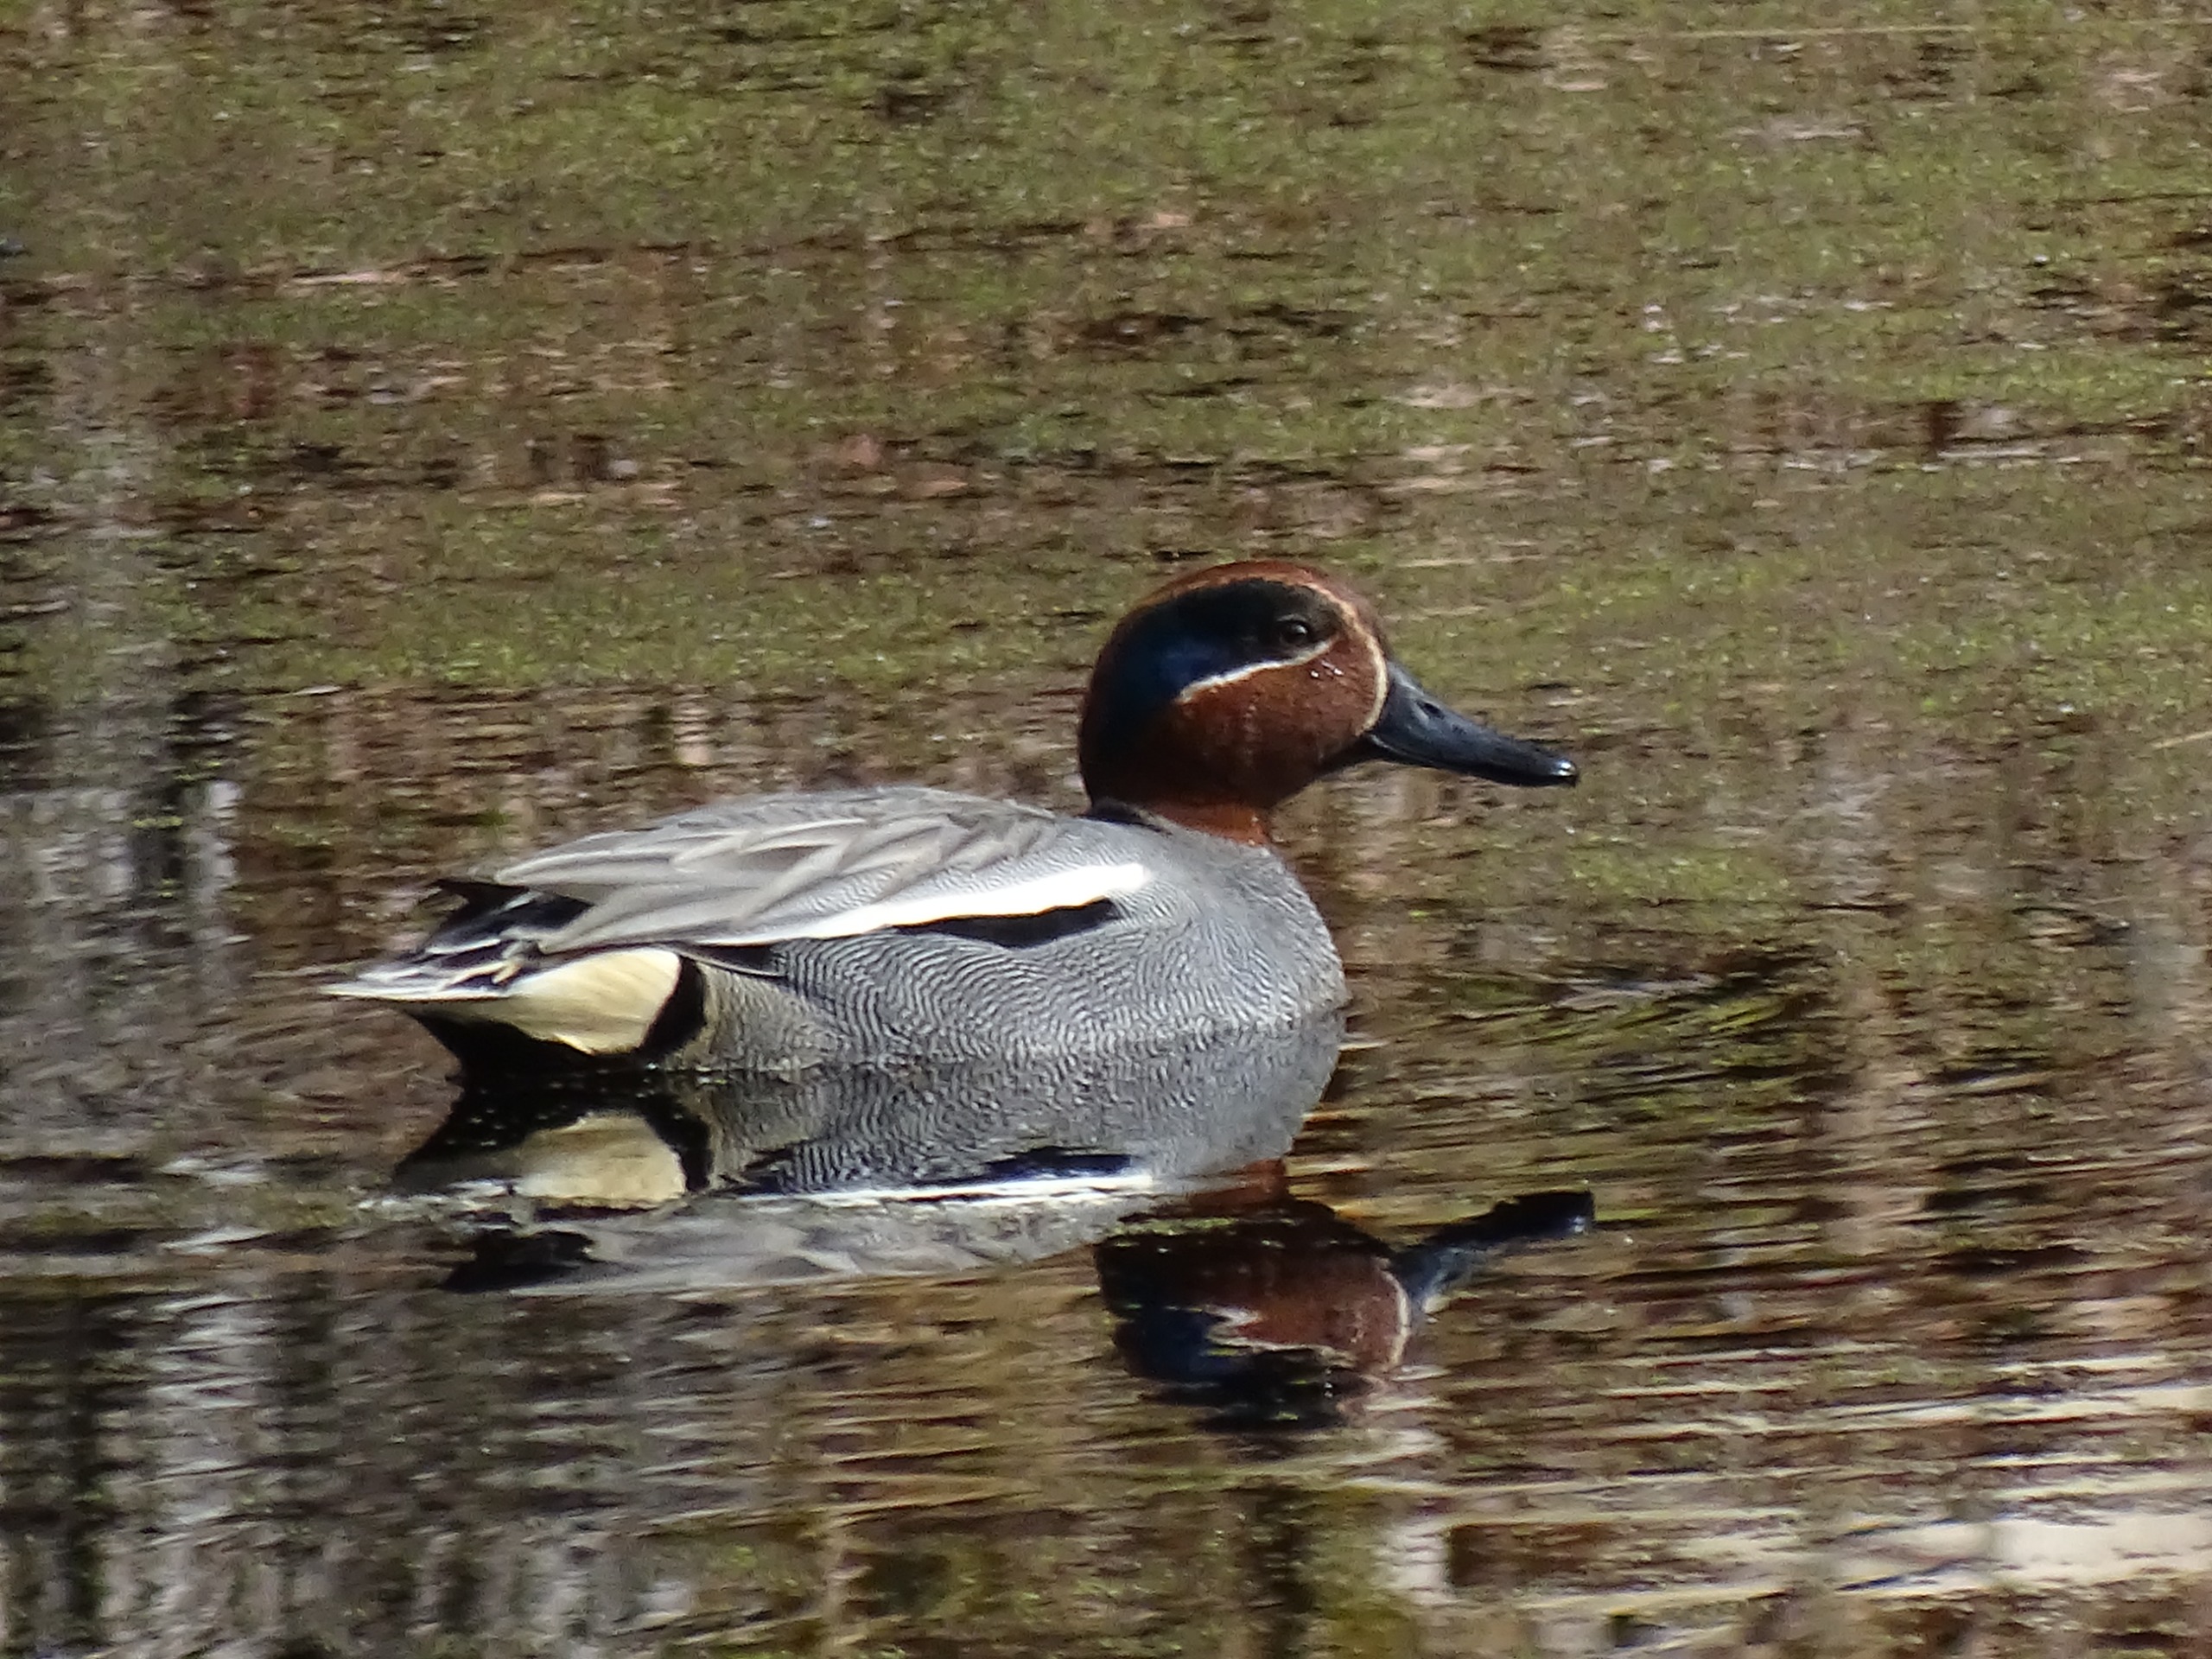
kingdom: Animalia
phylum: Chordata
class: Aves
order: Anseriformes
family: Anatidae
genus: Anas
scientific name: Anas crecca
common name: Krikand
